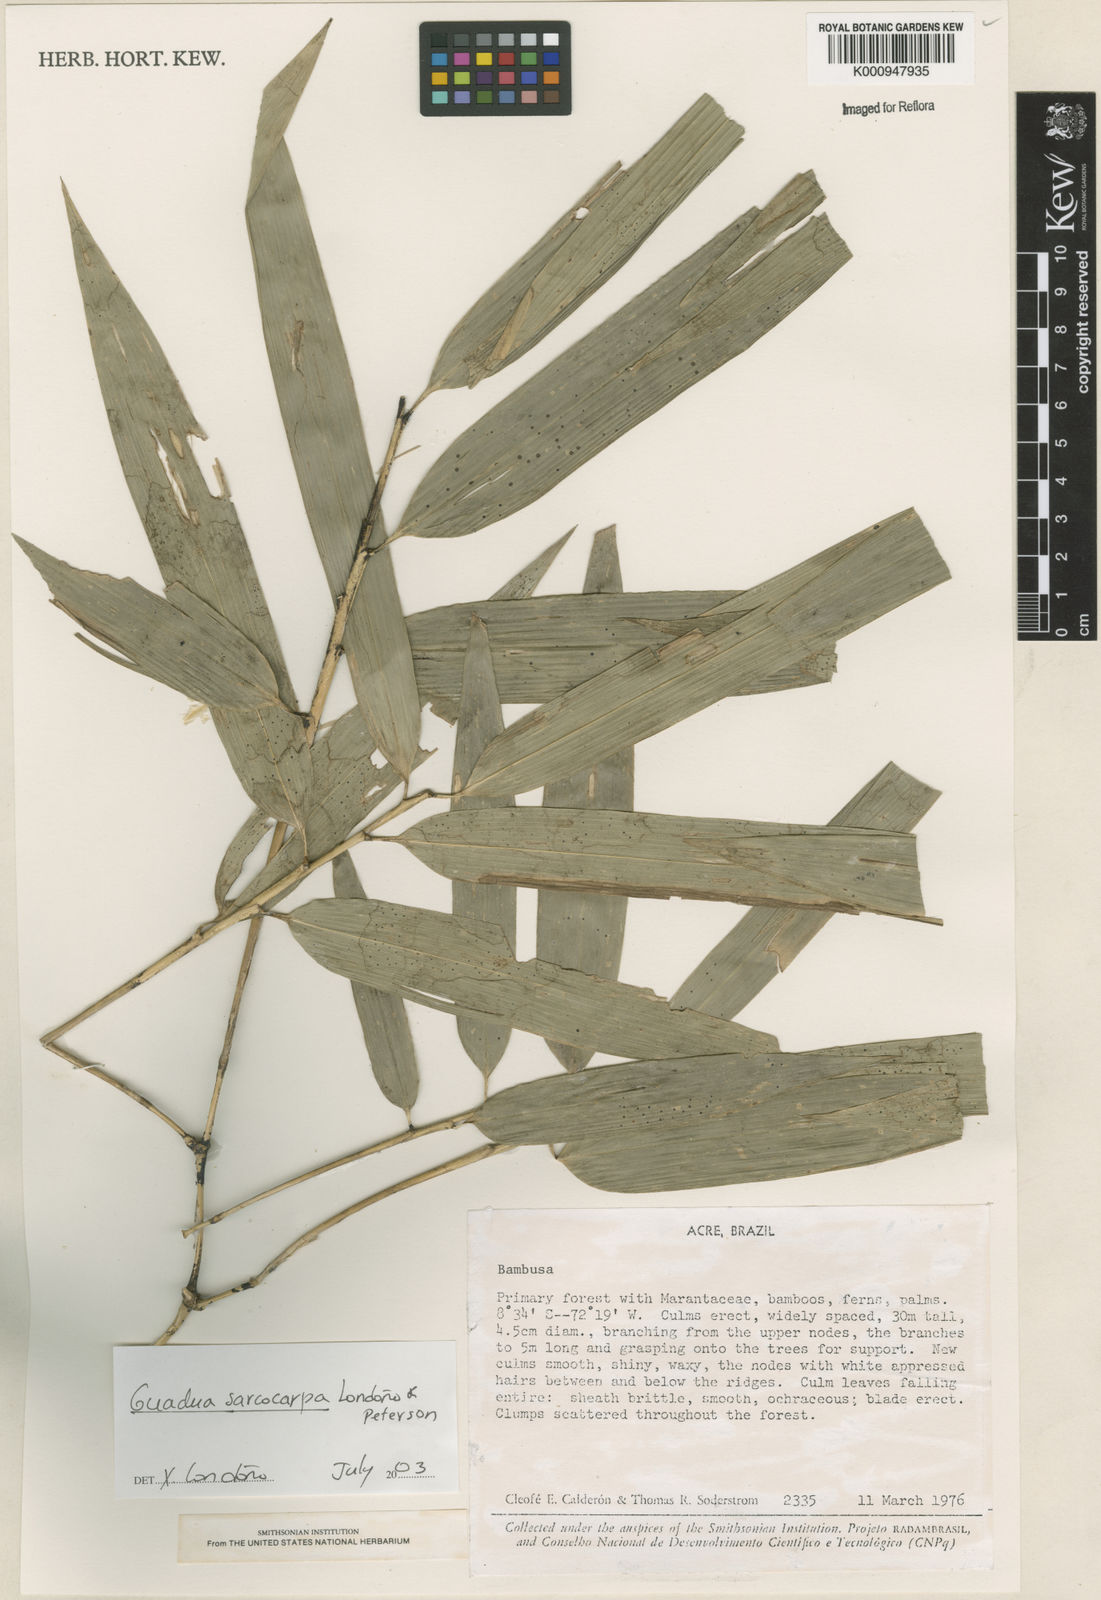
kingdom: Plantae
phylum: Tracheophyta
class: Liliopsida
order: Poales
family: Poaceae
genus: Guadua
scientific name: Guadua
